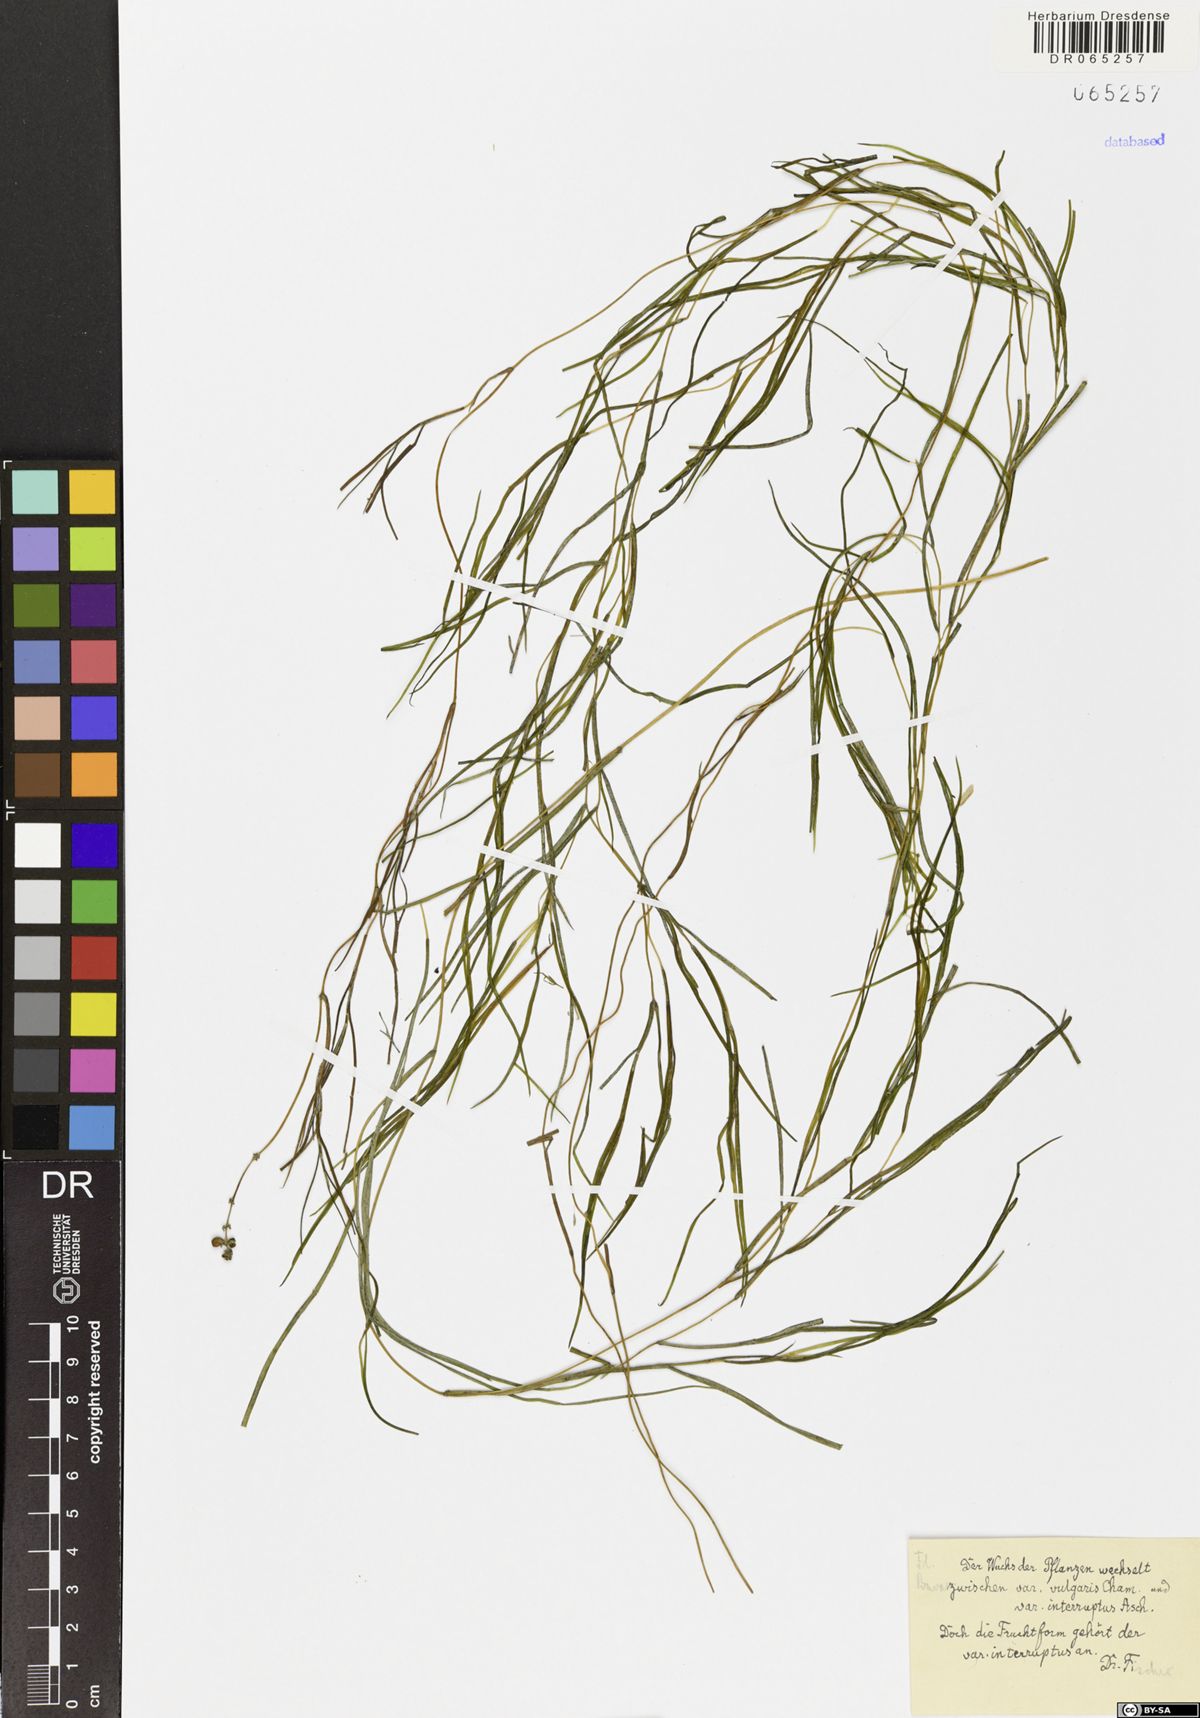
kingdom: Plantae
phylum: Tracheophyta
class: Liliopsida
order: Alismatales
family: Potamogetonaceae
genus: Stuckenia
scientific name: Stuckenia pectinata
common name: Sago pondweed
